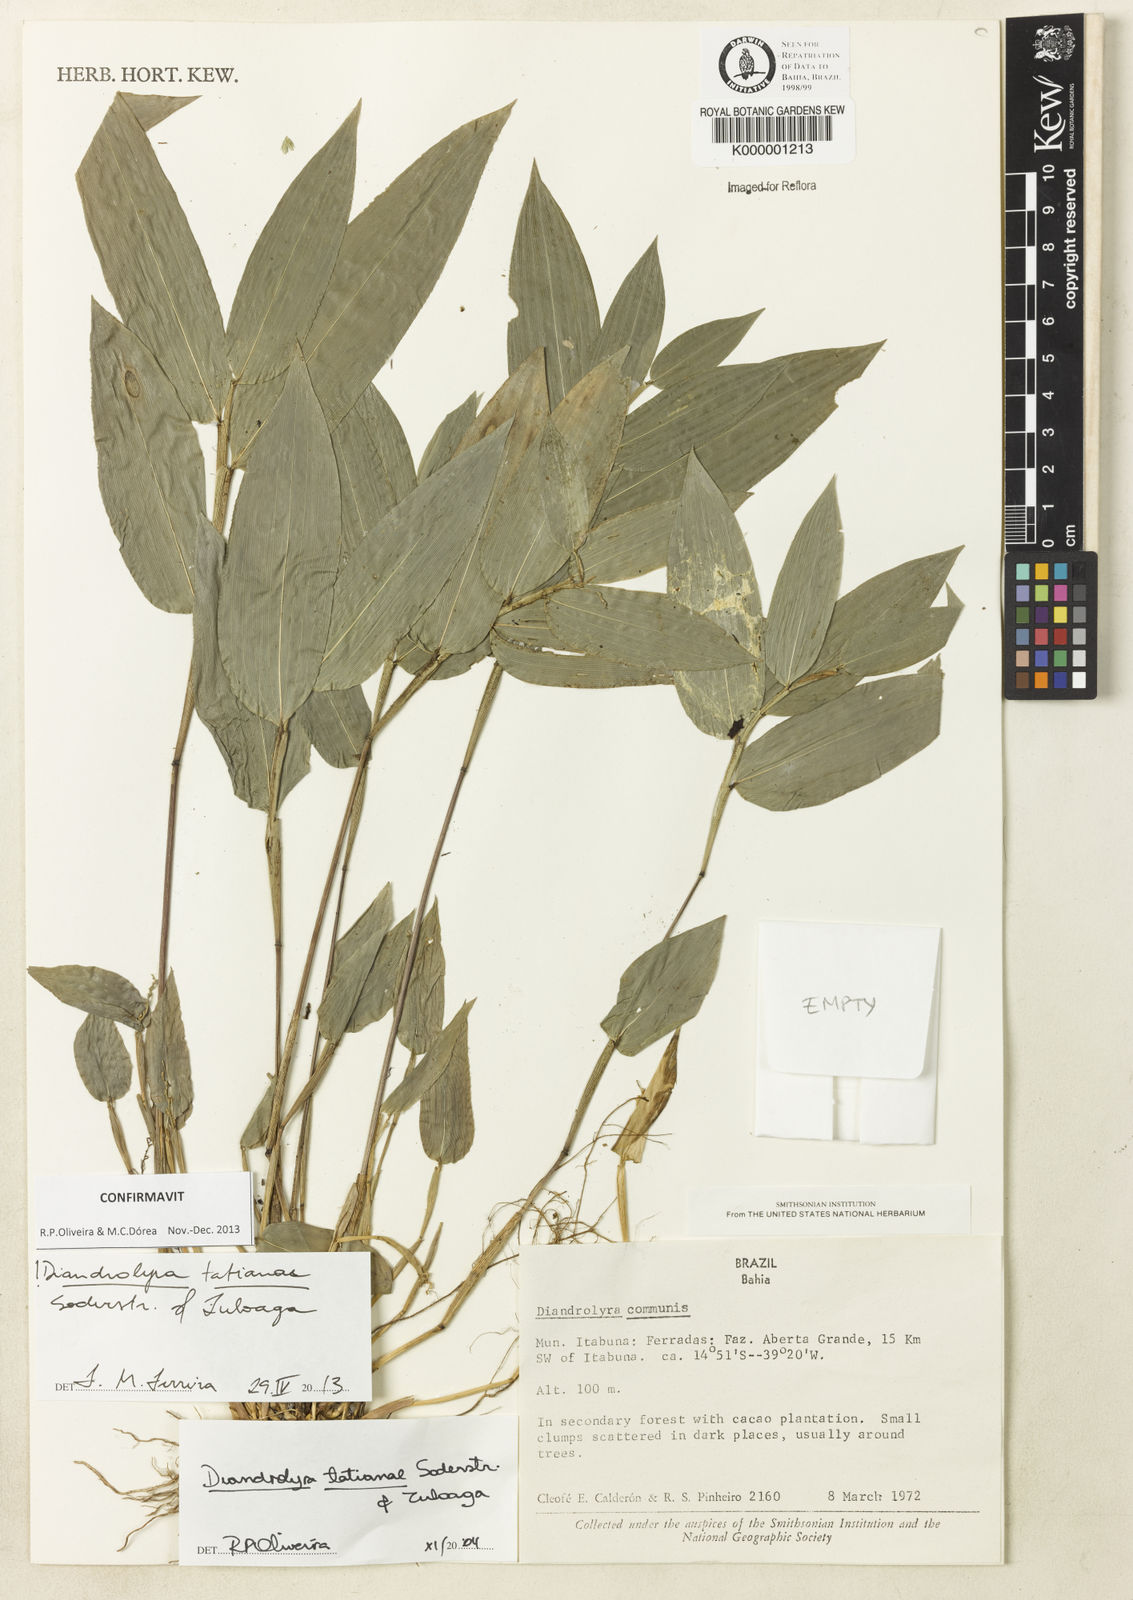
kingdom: Plantae
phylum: Tracheophyta
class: Liliopsida
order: Poales
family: Poaceae
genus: Diandrolyra
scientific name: Diandrolyra
